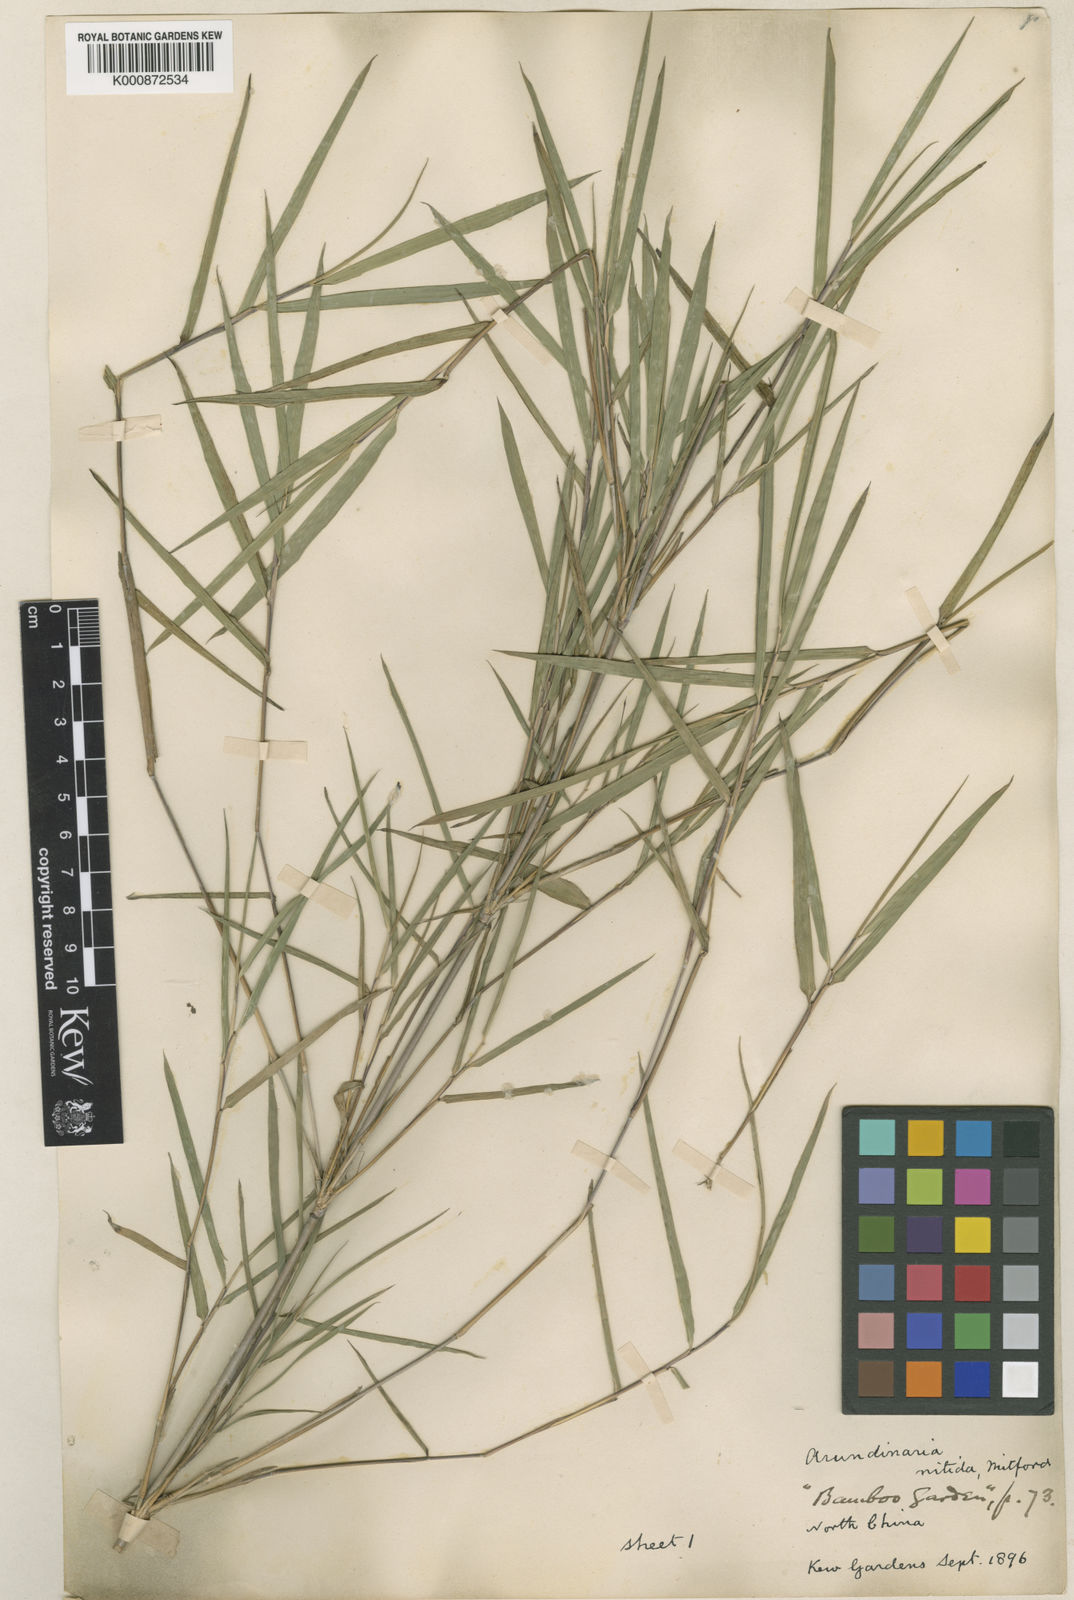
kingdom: Plantae
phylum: Tracheophyta
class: Liliopsida
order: Poales
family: Poaceae
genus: Fargesia
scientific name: Fargesia nitida ex
